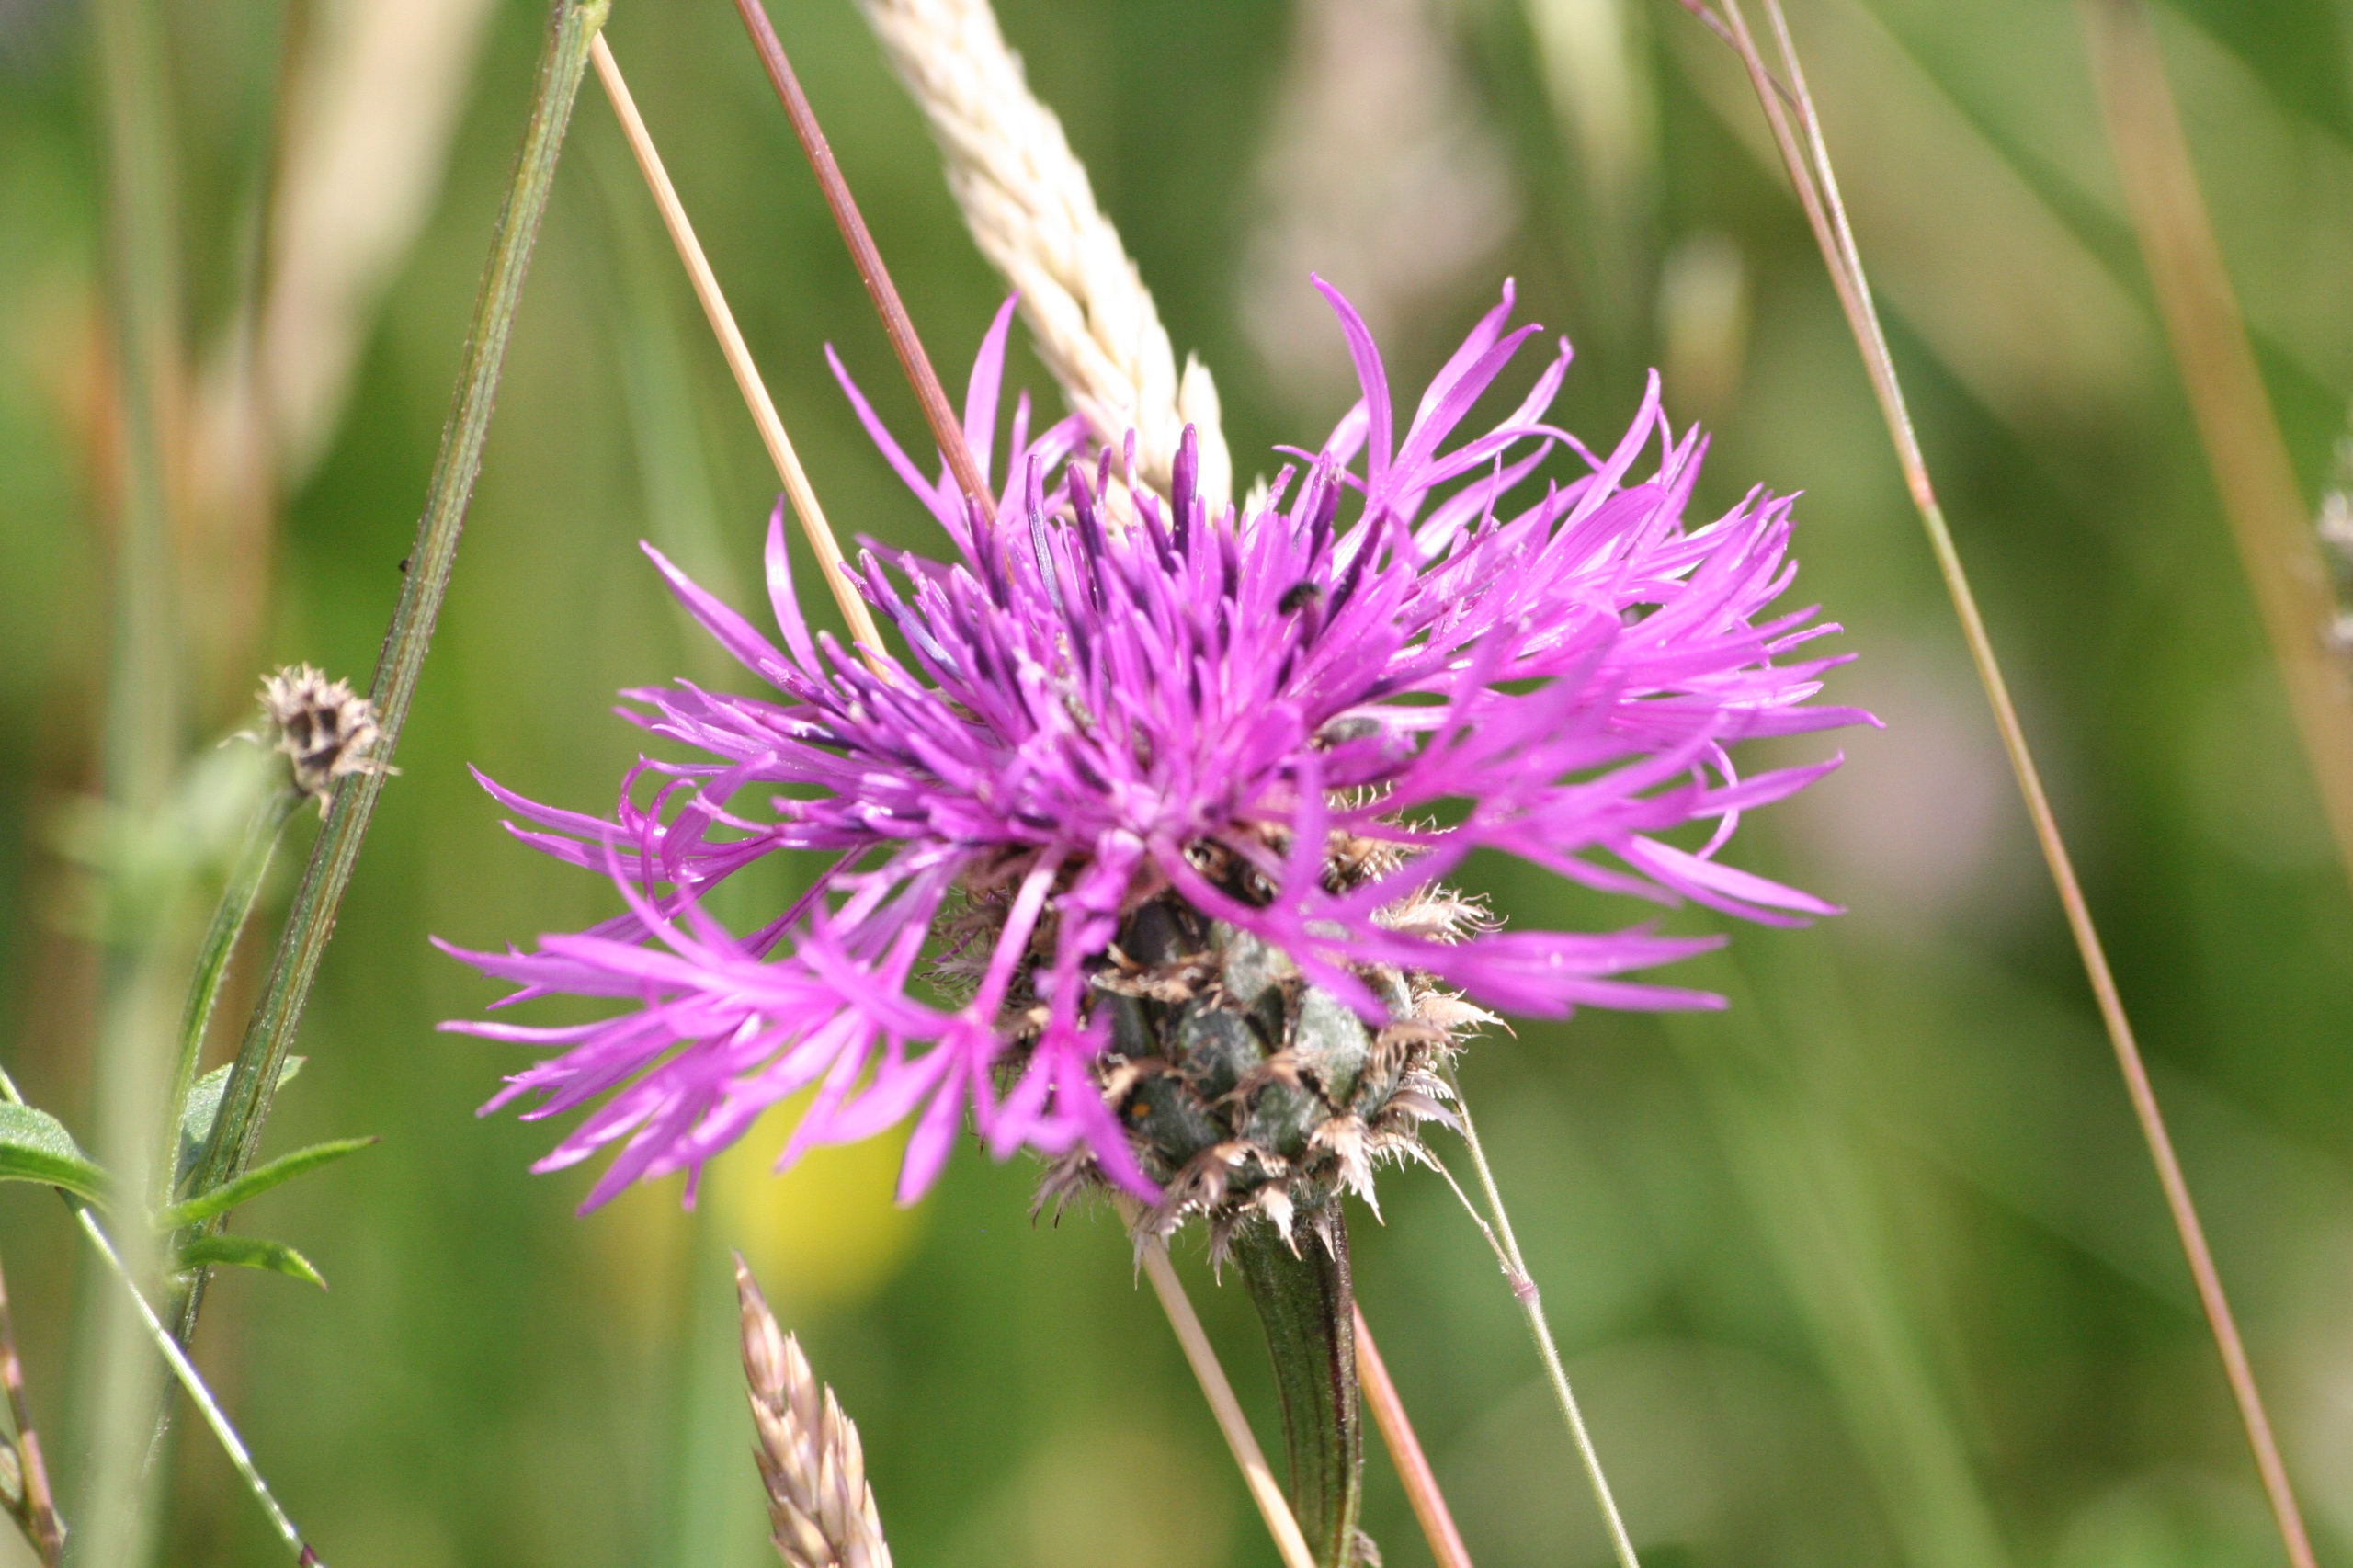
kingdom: Plantae
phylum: Tracheophyta
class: Magnoliopsida
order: Asterales
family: Asteraceae
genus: Centaurea
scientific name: Centaurea scabiosa
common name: Stor knopurt
